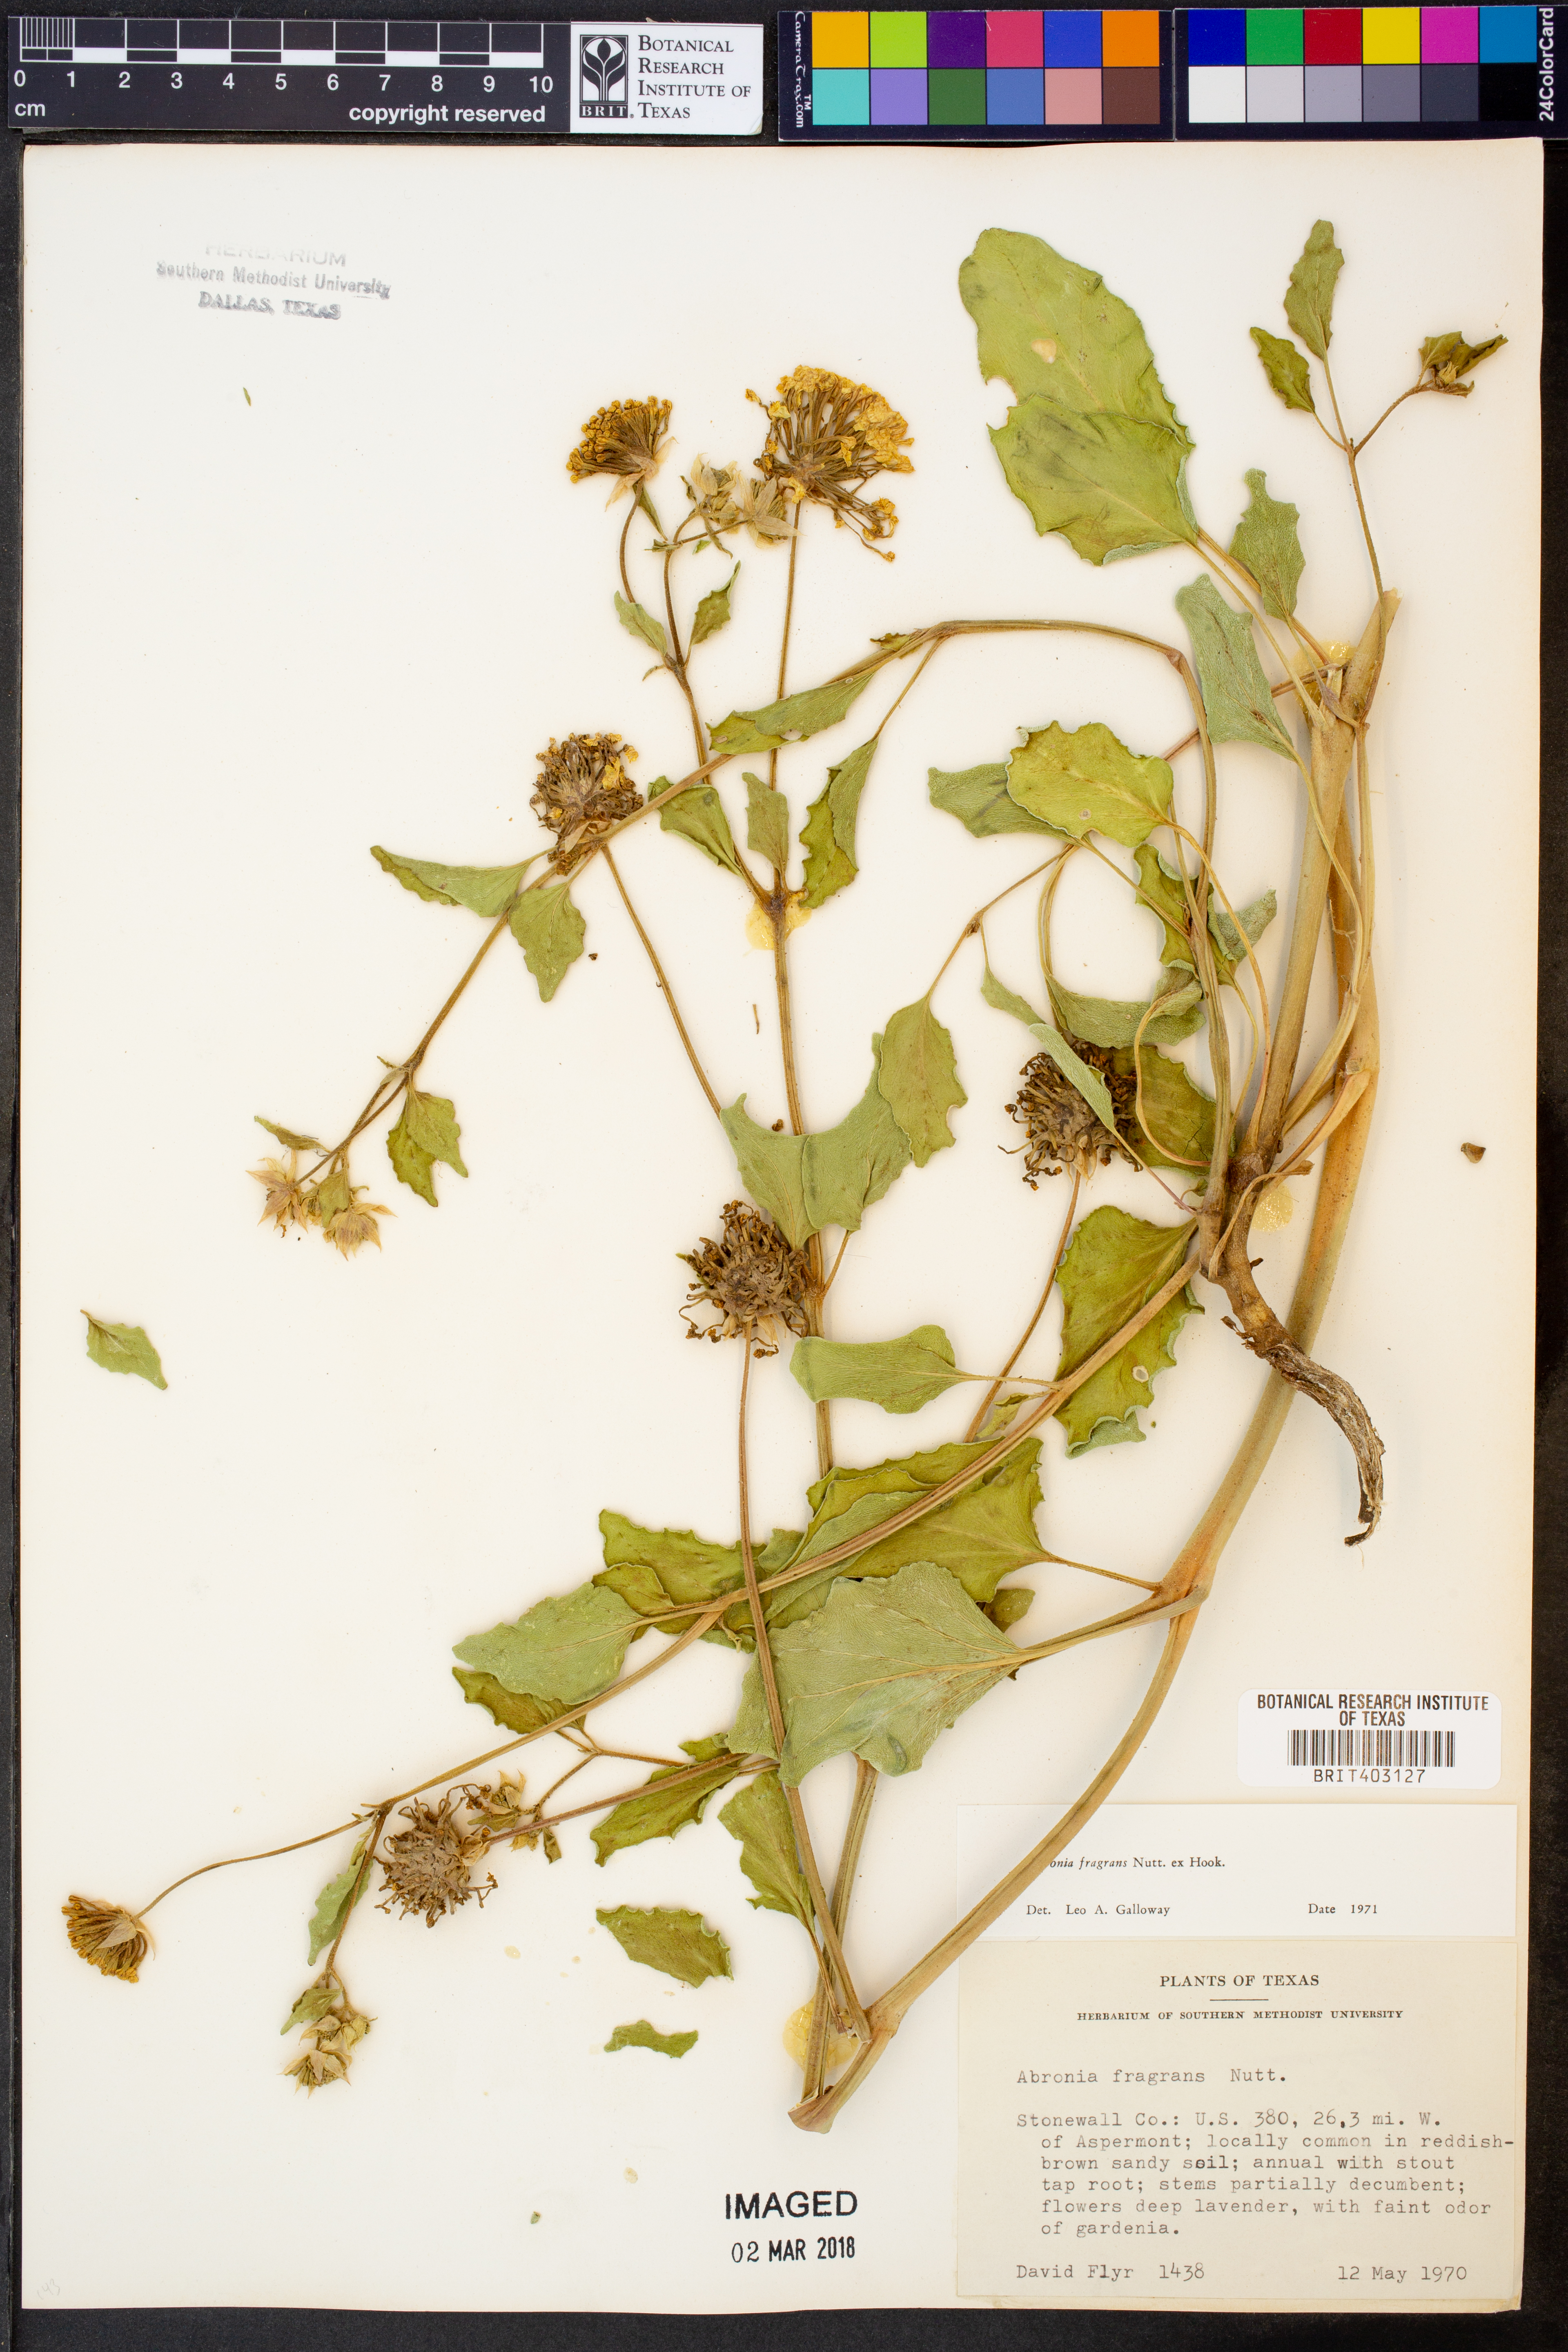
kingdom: Plantae
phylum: Tracheophyta
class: Magnoliopsida
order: Caryophyllales
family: Nyctaginaceae
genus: Abronia
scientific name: Abronia fragrans
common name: Fragrant sand-verbena
